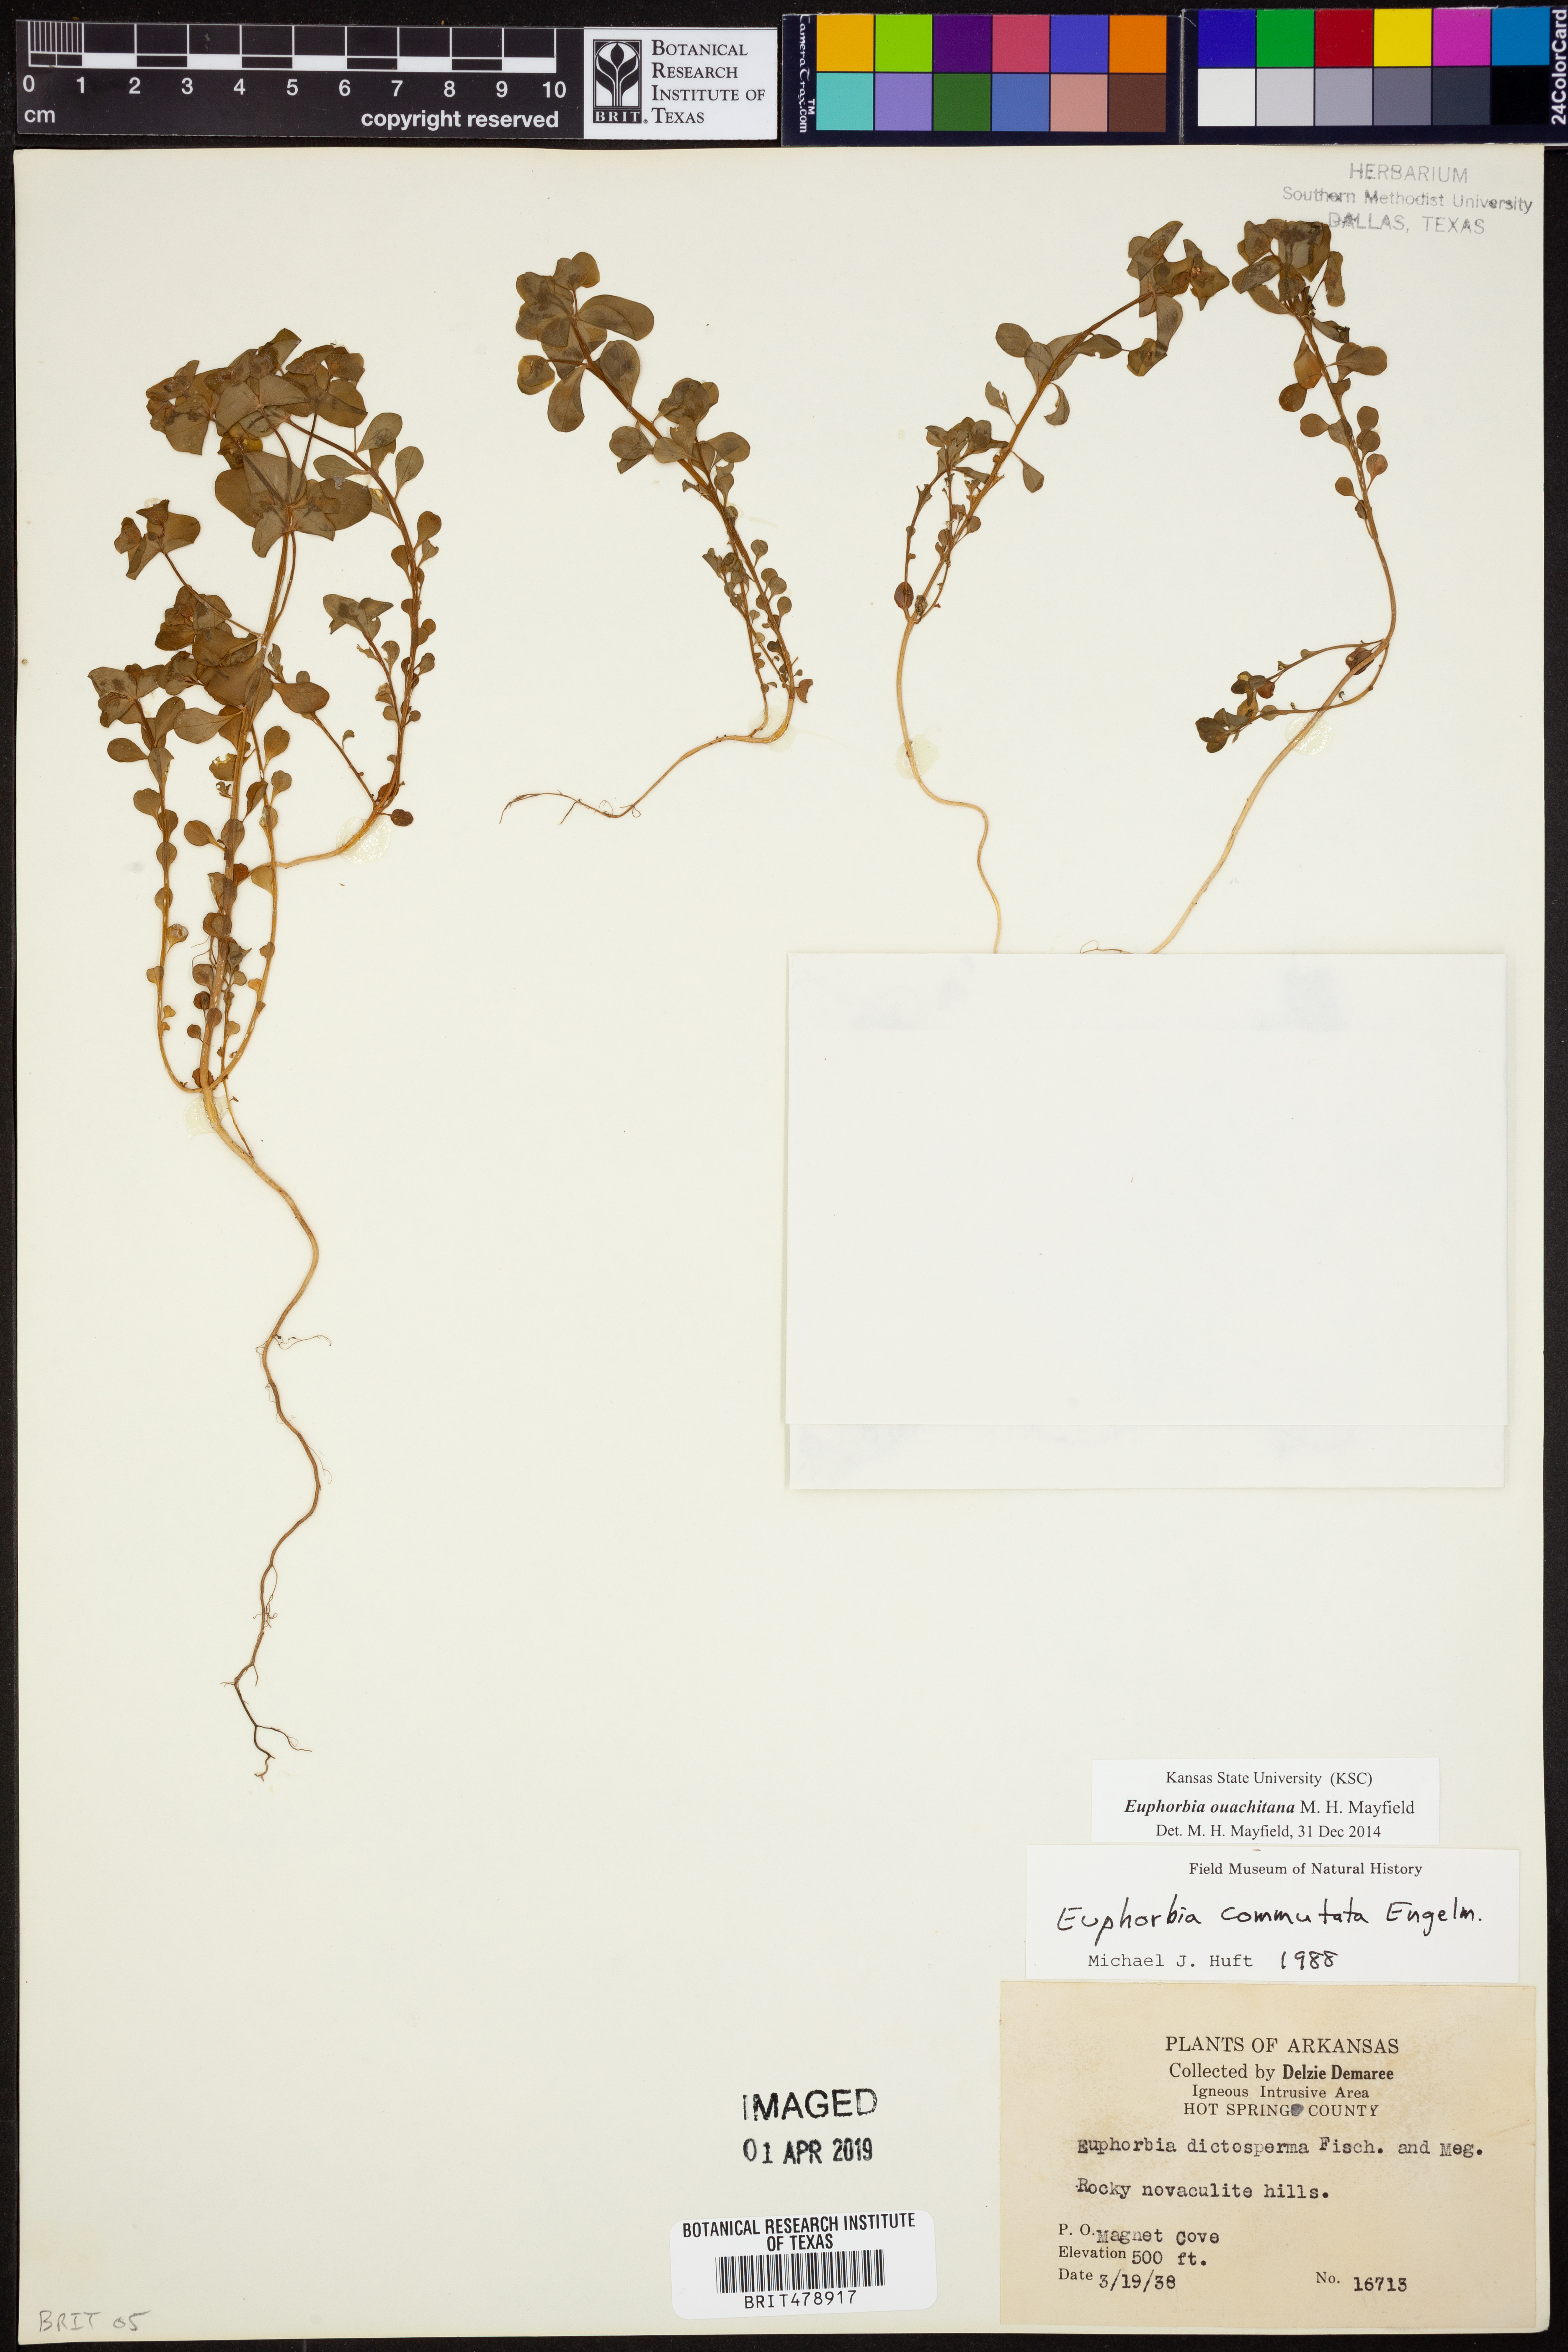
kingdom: Plantae
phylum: Tracheophyta
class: Magnoliopsida
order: Malpighiales
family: Euphorbiaceae
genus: Euphorbia
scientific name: Euphorbia ouachitana
